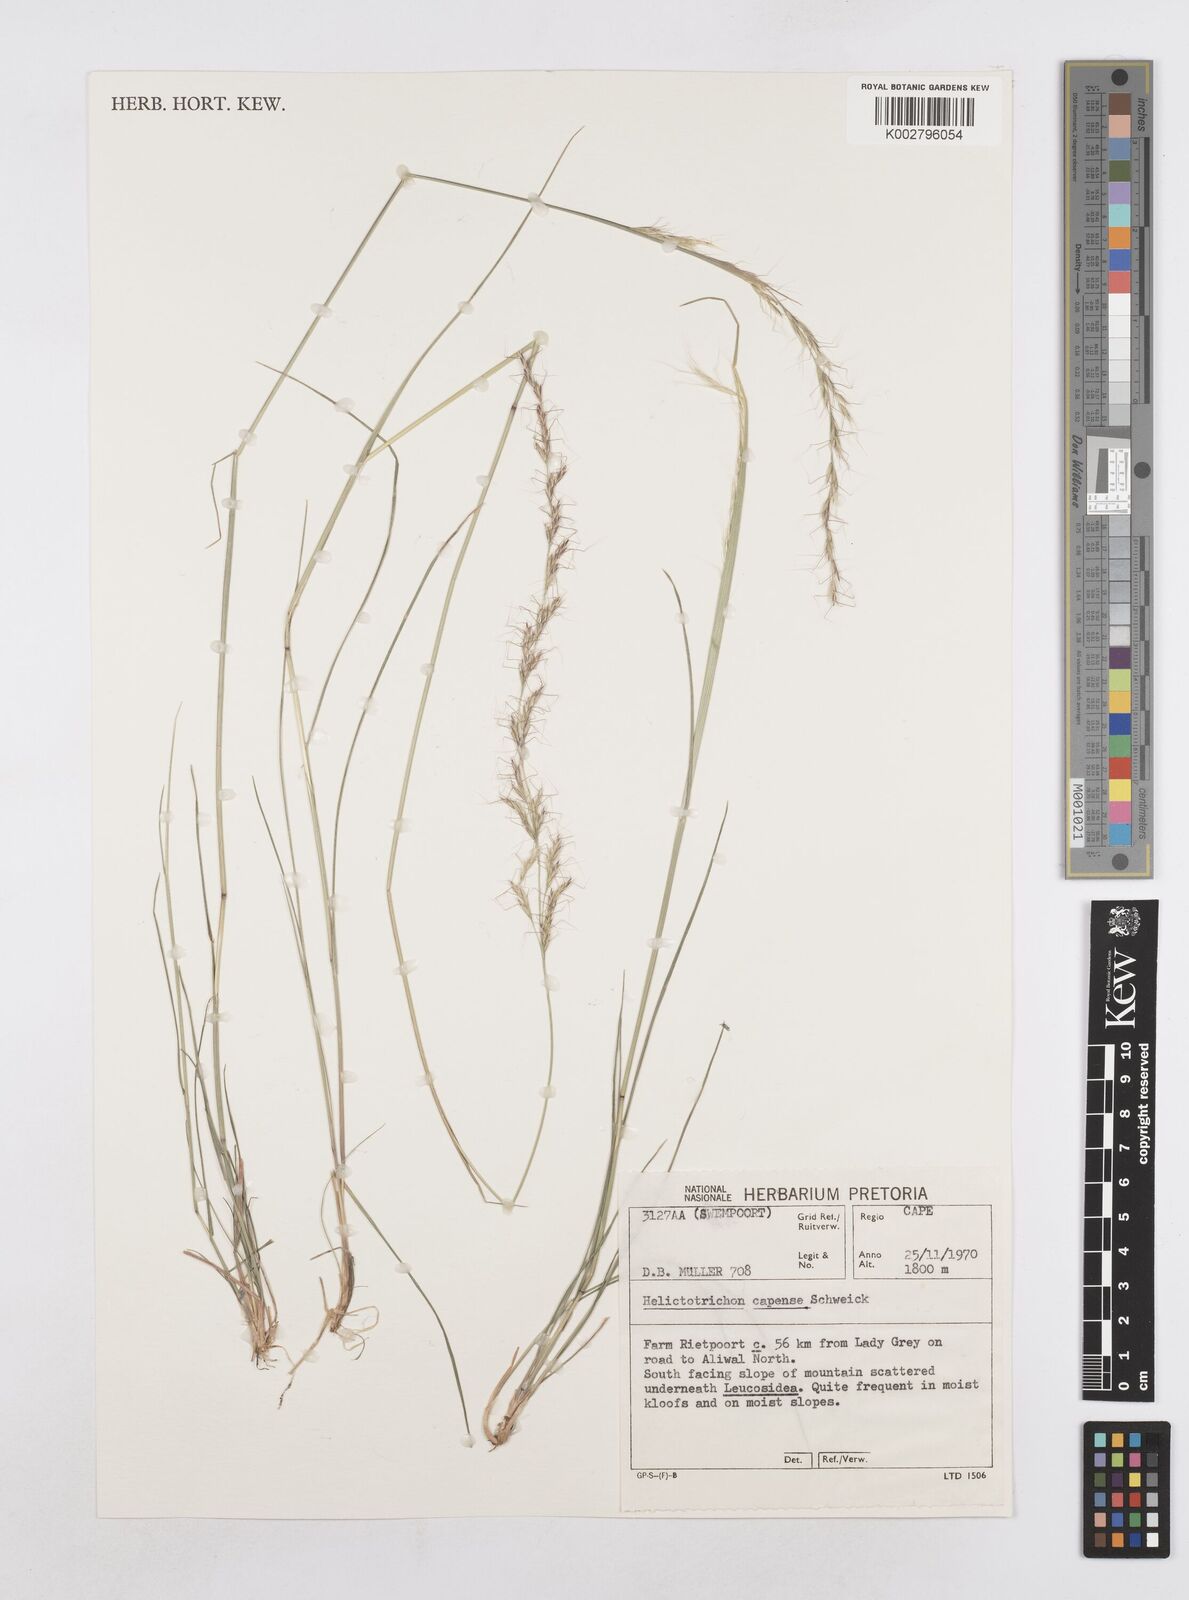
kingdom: Plantae
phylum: Tracheophyta
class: Liliopsida
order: Poales
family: Poaceae
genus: Trisetopsis
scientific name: Trisetopsis capensis
